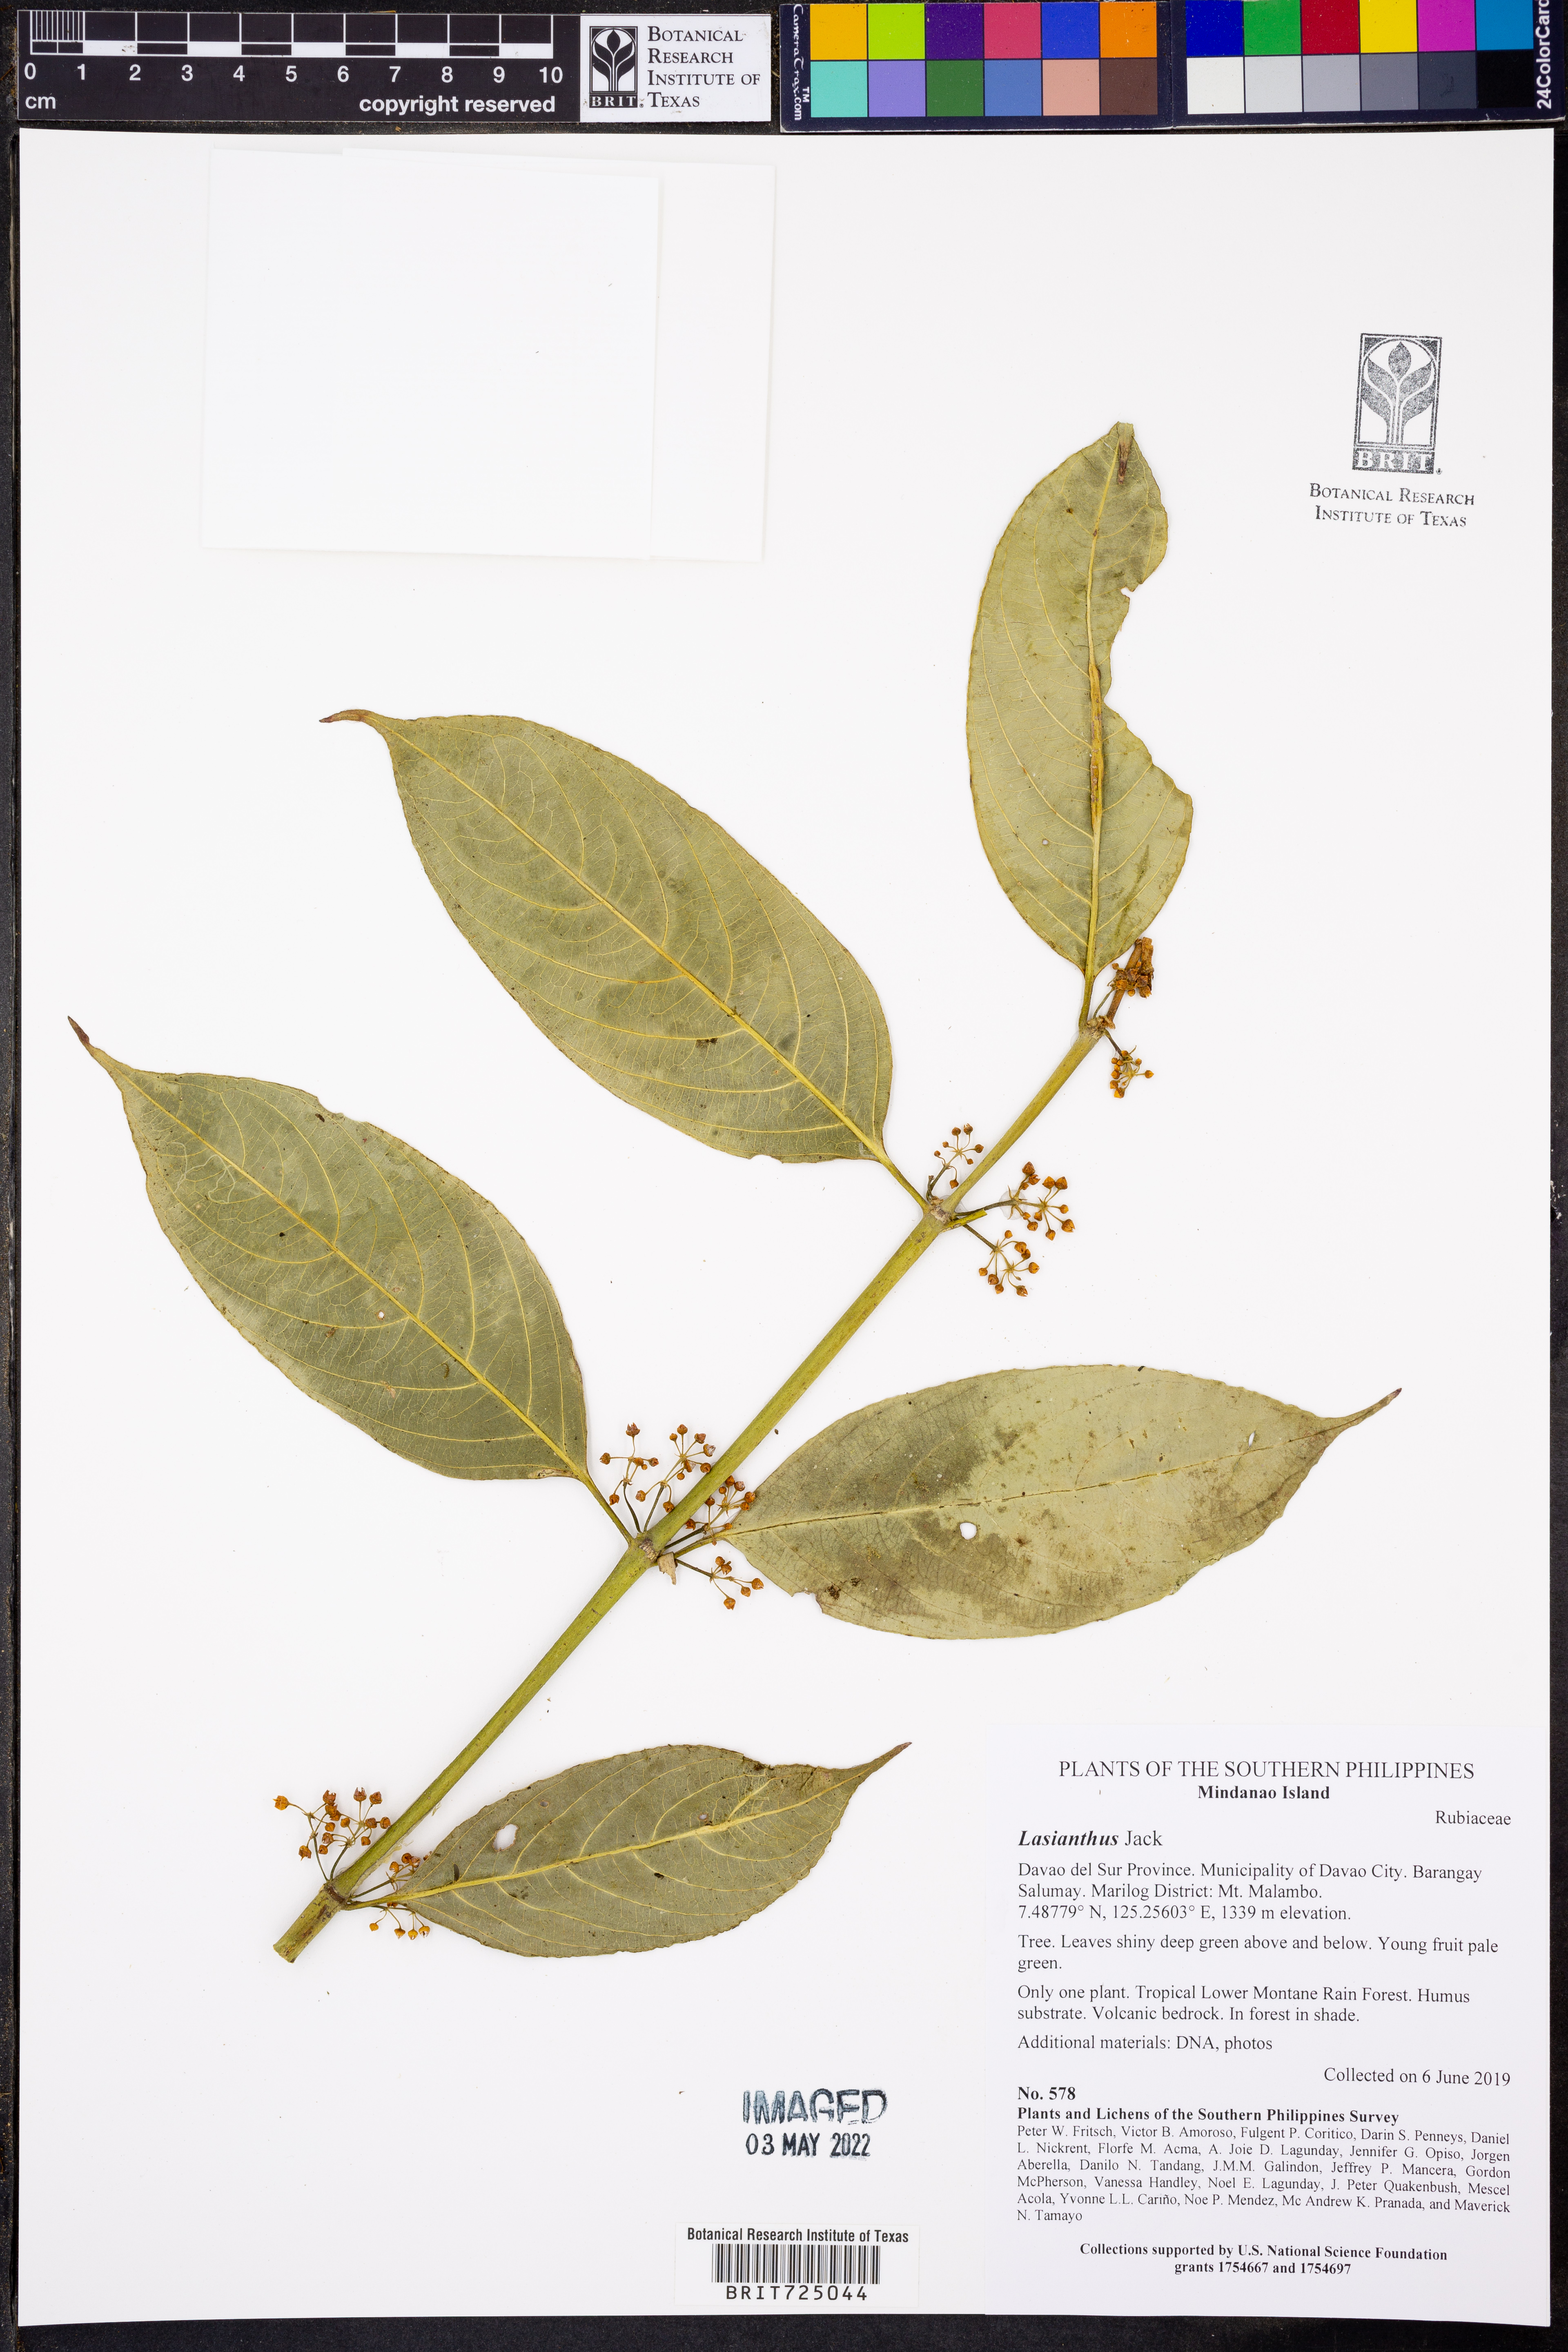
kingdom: Plantae
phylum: Tracheophyta
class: Magnoliopsida
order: Gentianales
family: Rubiaceae
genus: Lasianthus
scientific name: Lasianthus
